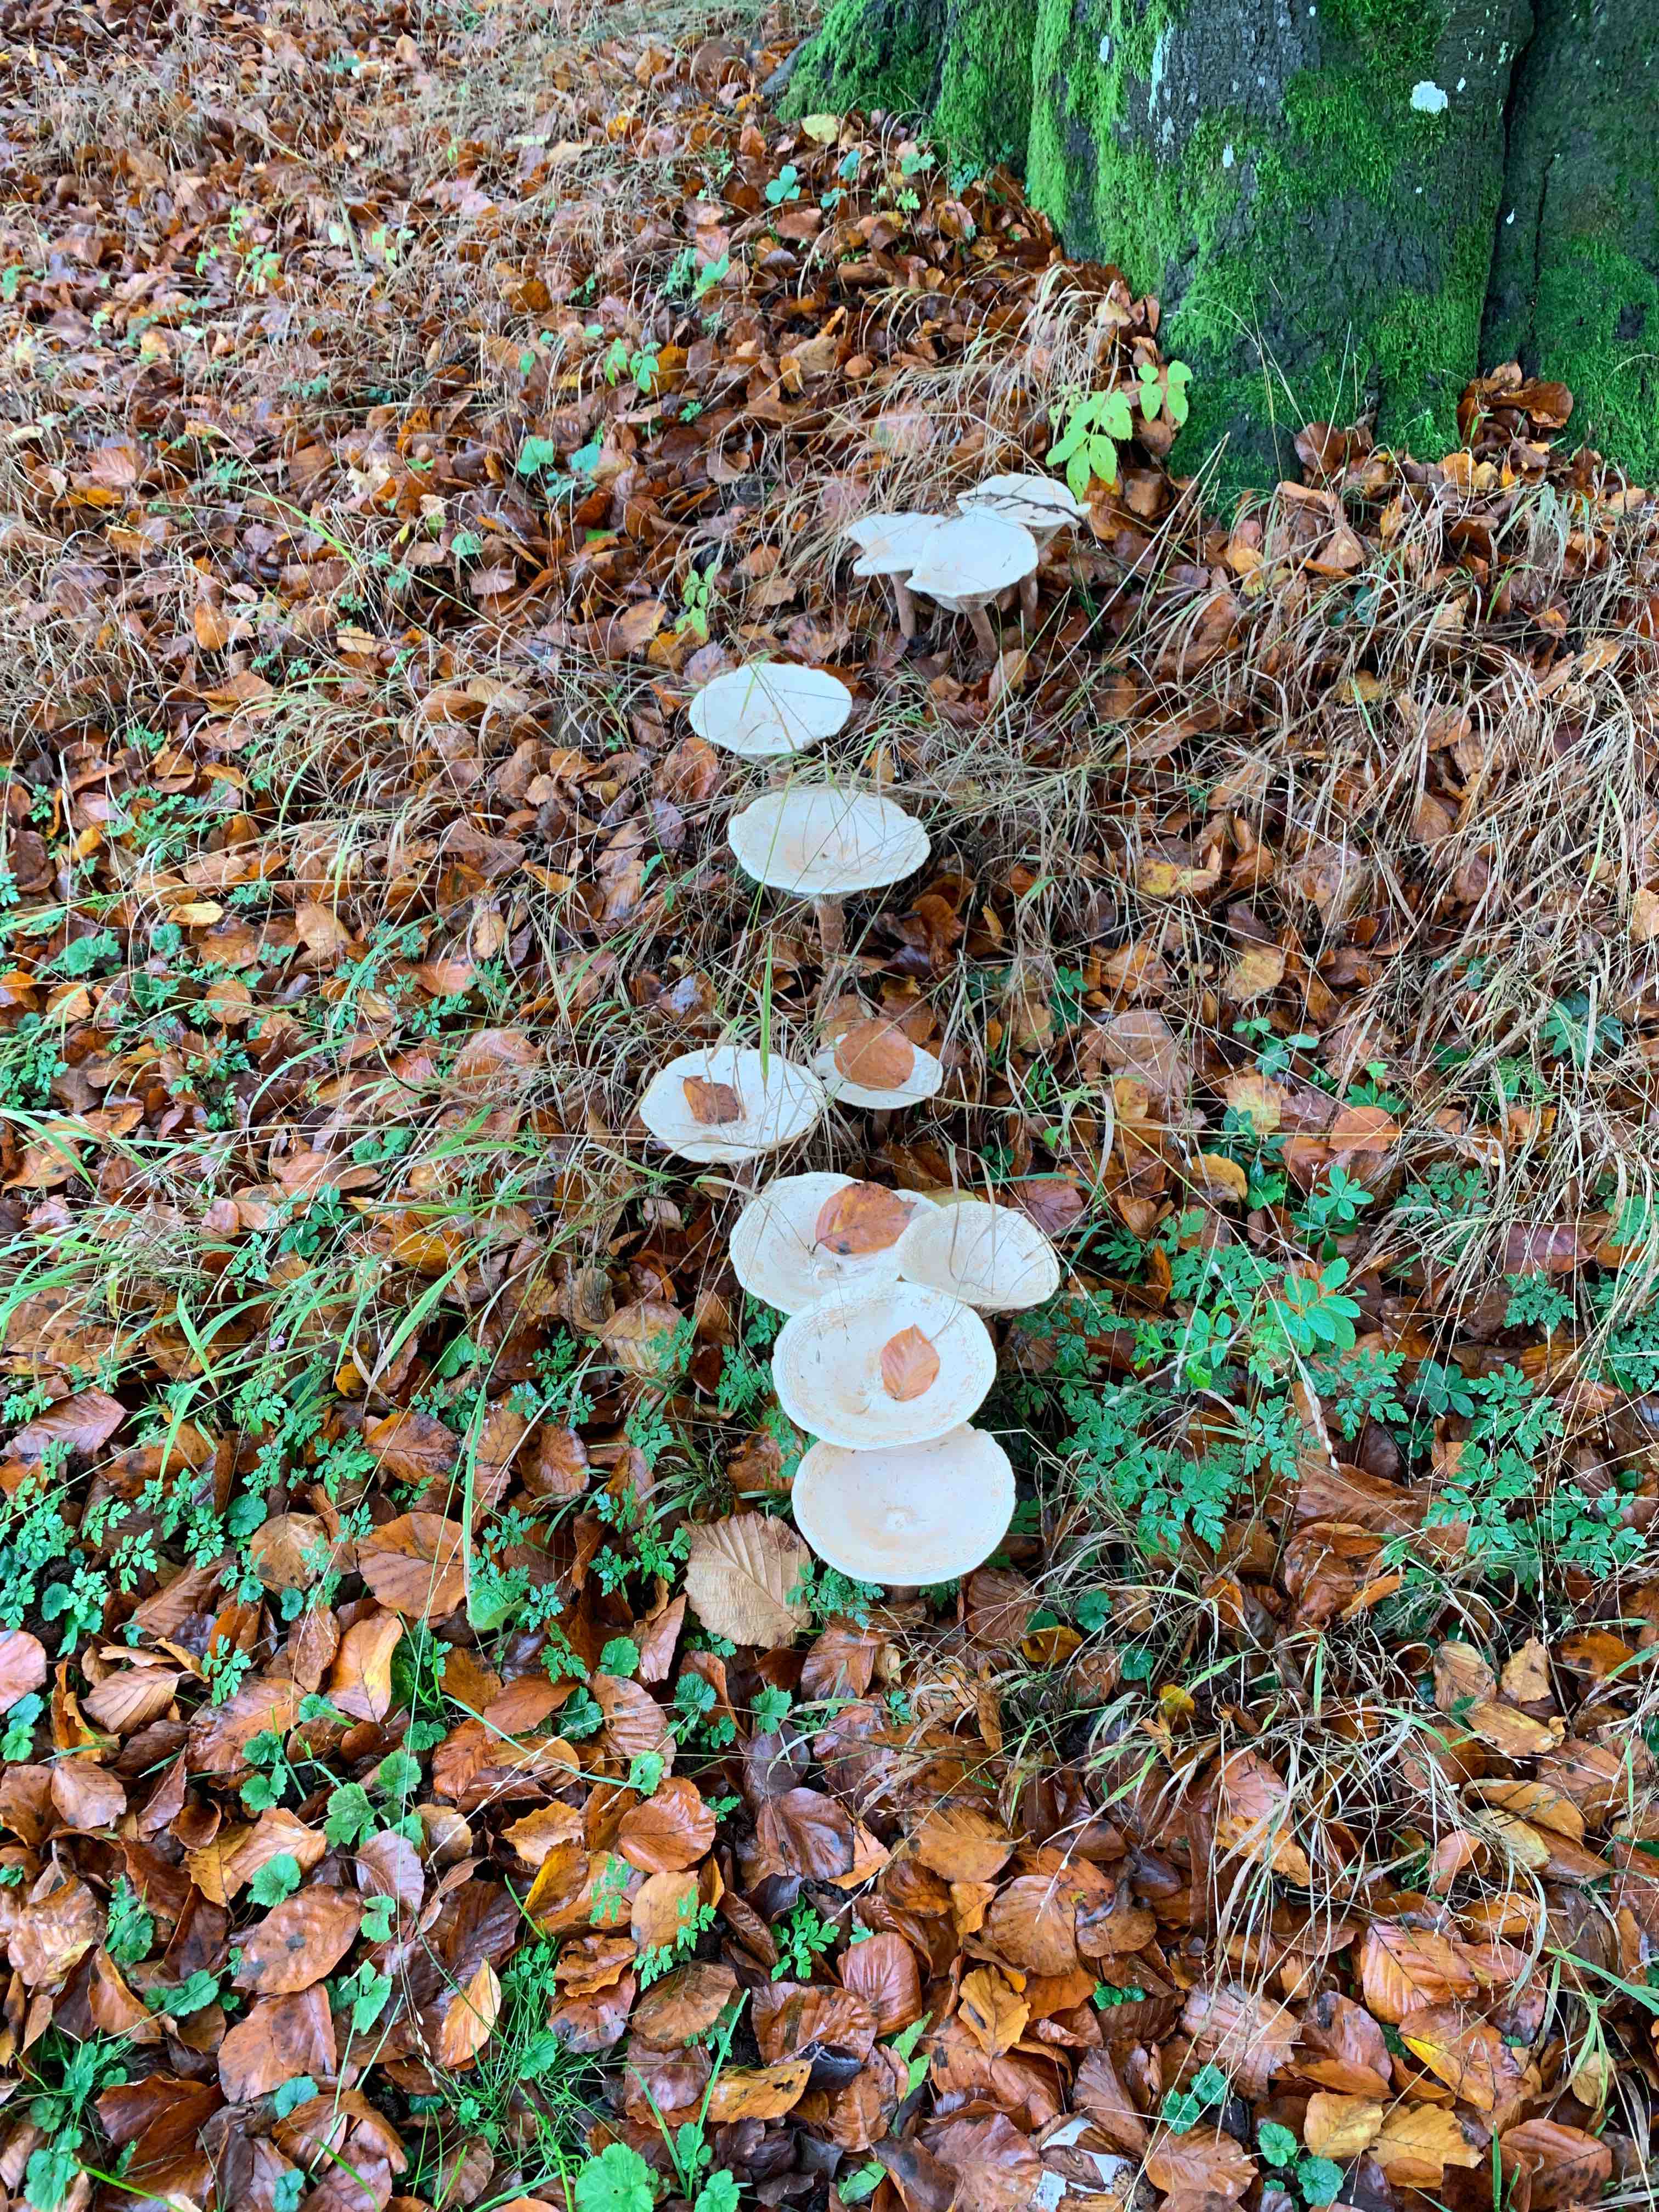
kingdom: Fungi
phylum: Basidiomycota
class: Agaricomycetes
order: Agaricales
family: Tricholomataceae
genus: Infundibulicybe
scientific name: Infundibulicybe geotropa
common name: stor tragthat
